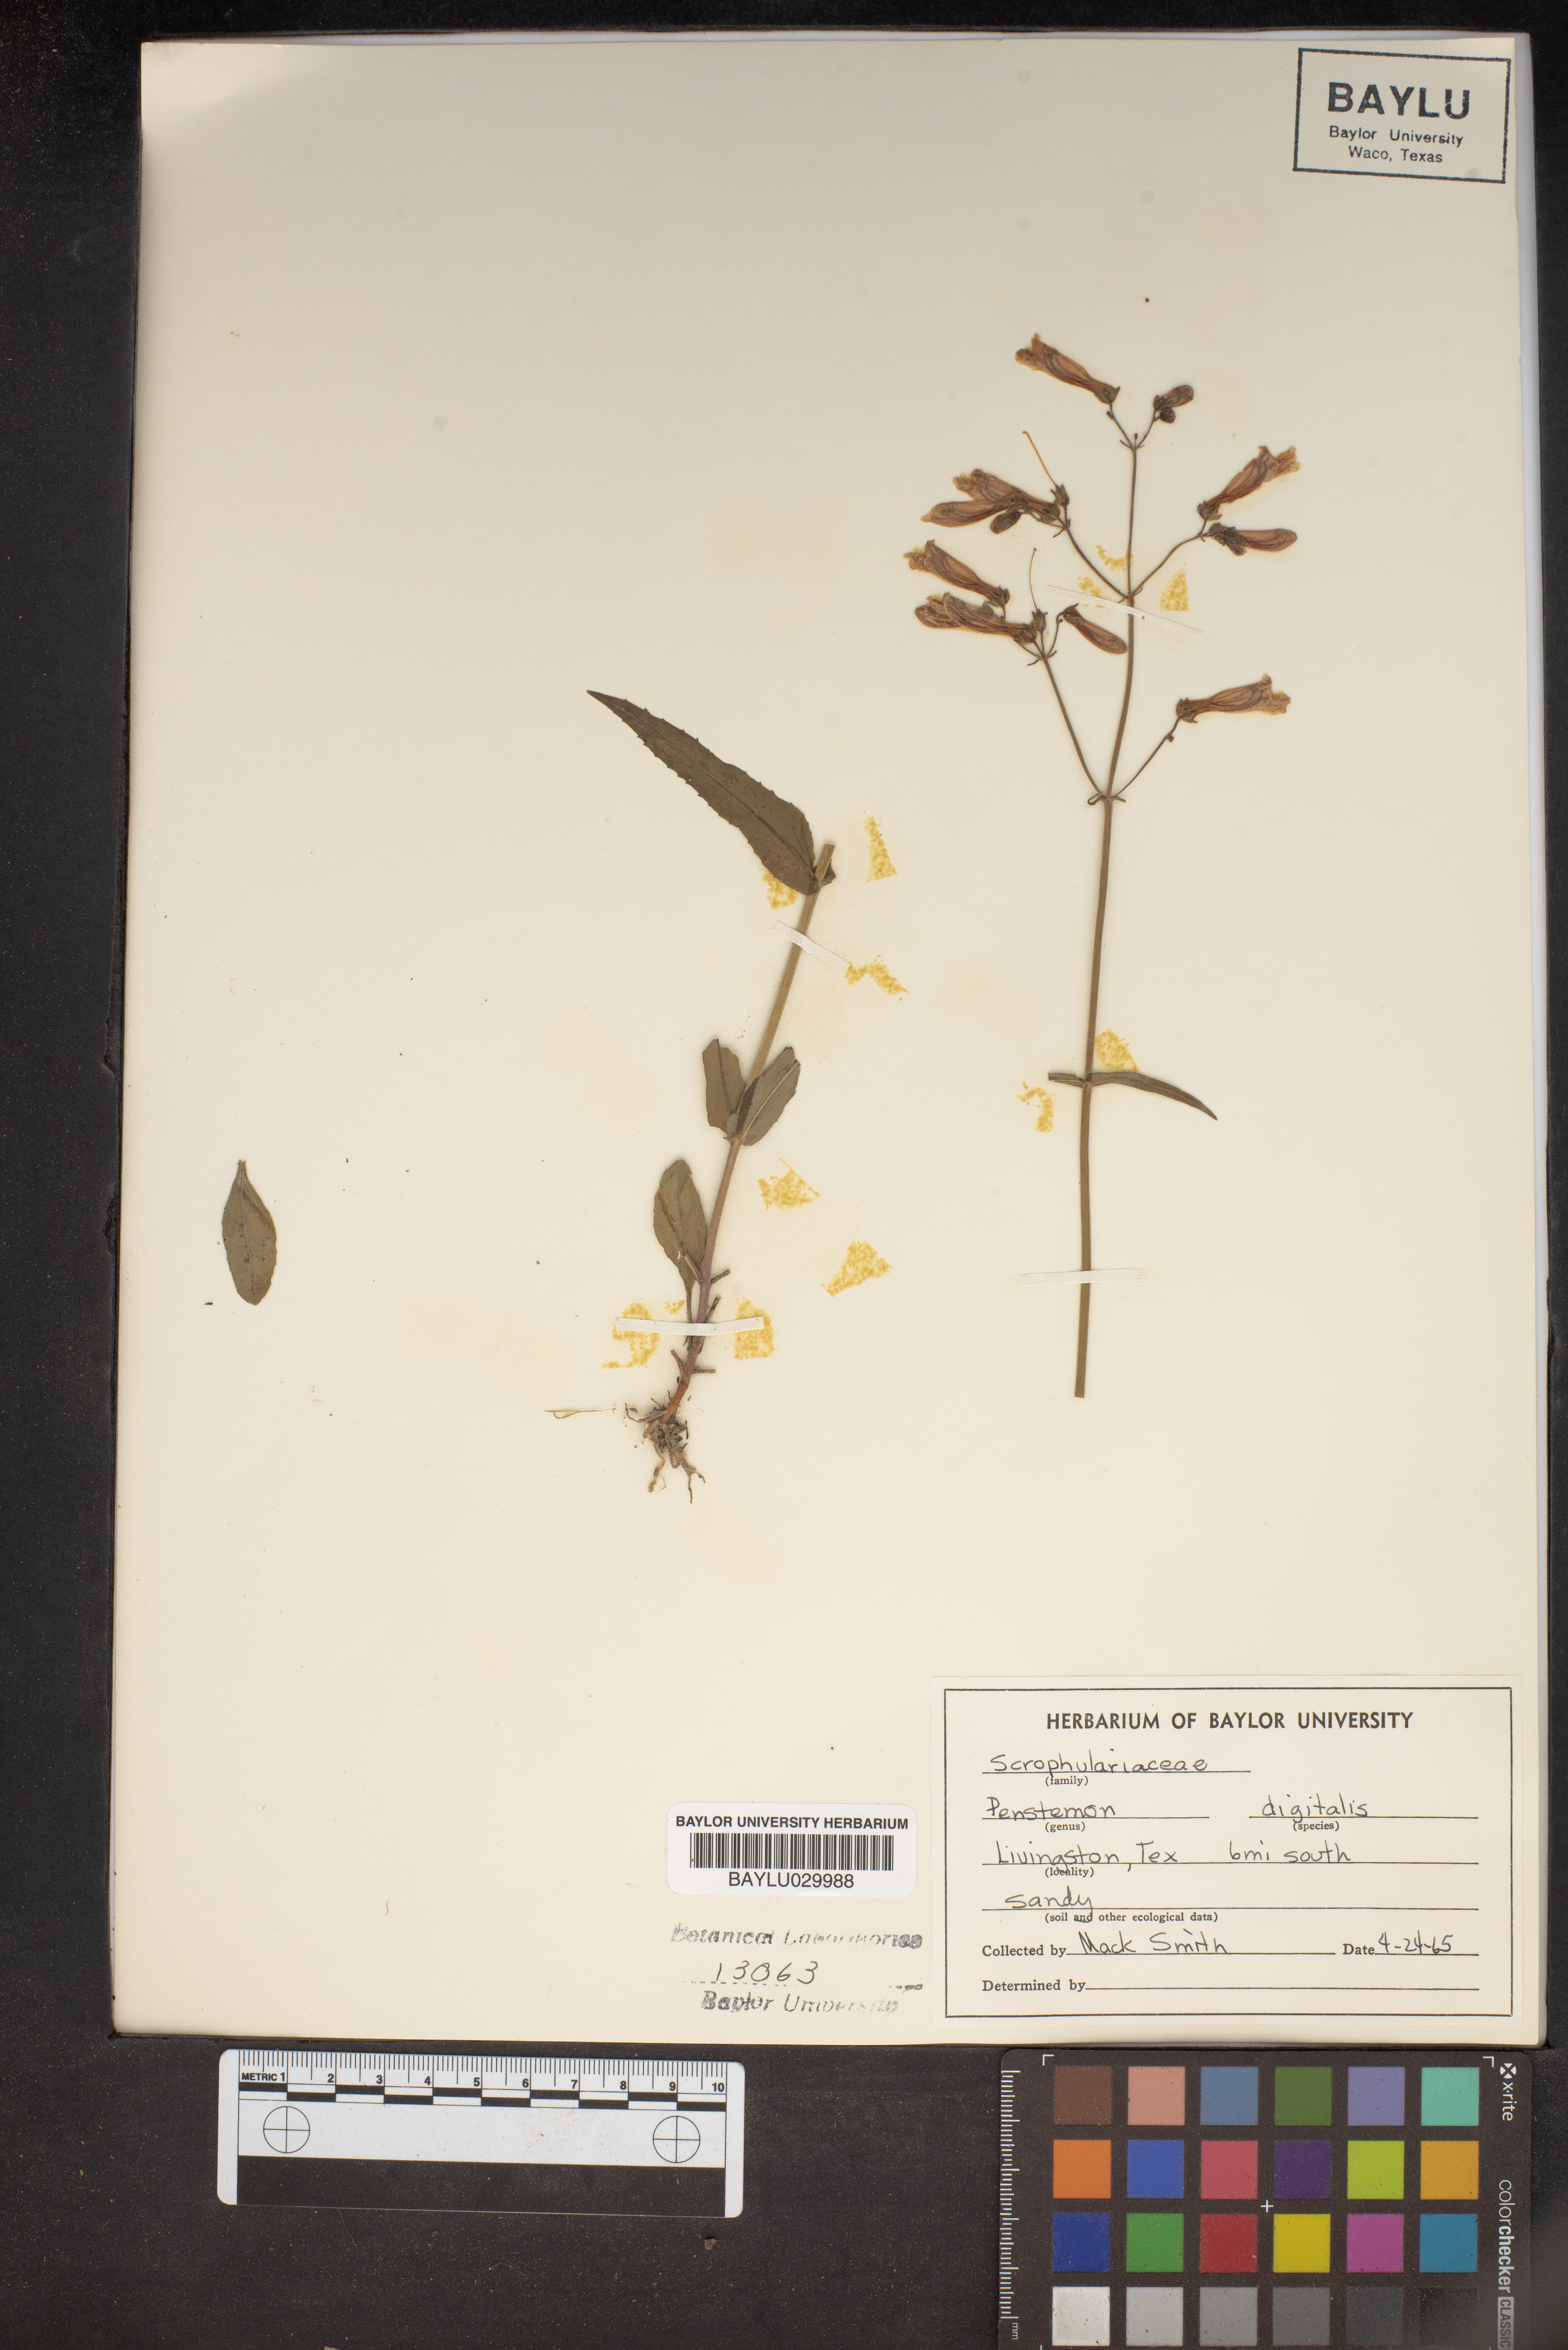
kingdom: Plantae
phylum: Tracheophyta
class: Magnoliopsida
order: Lamiales
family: Plantaginaceae
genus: Penstemon
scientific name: Penstemon digitalis
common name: Foxglove beardtongue
